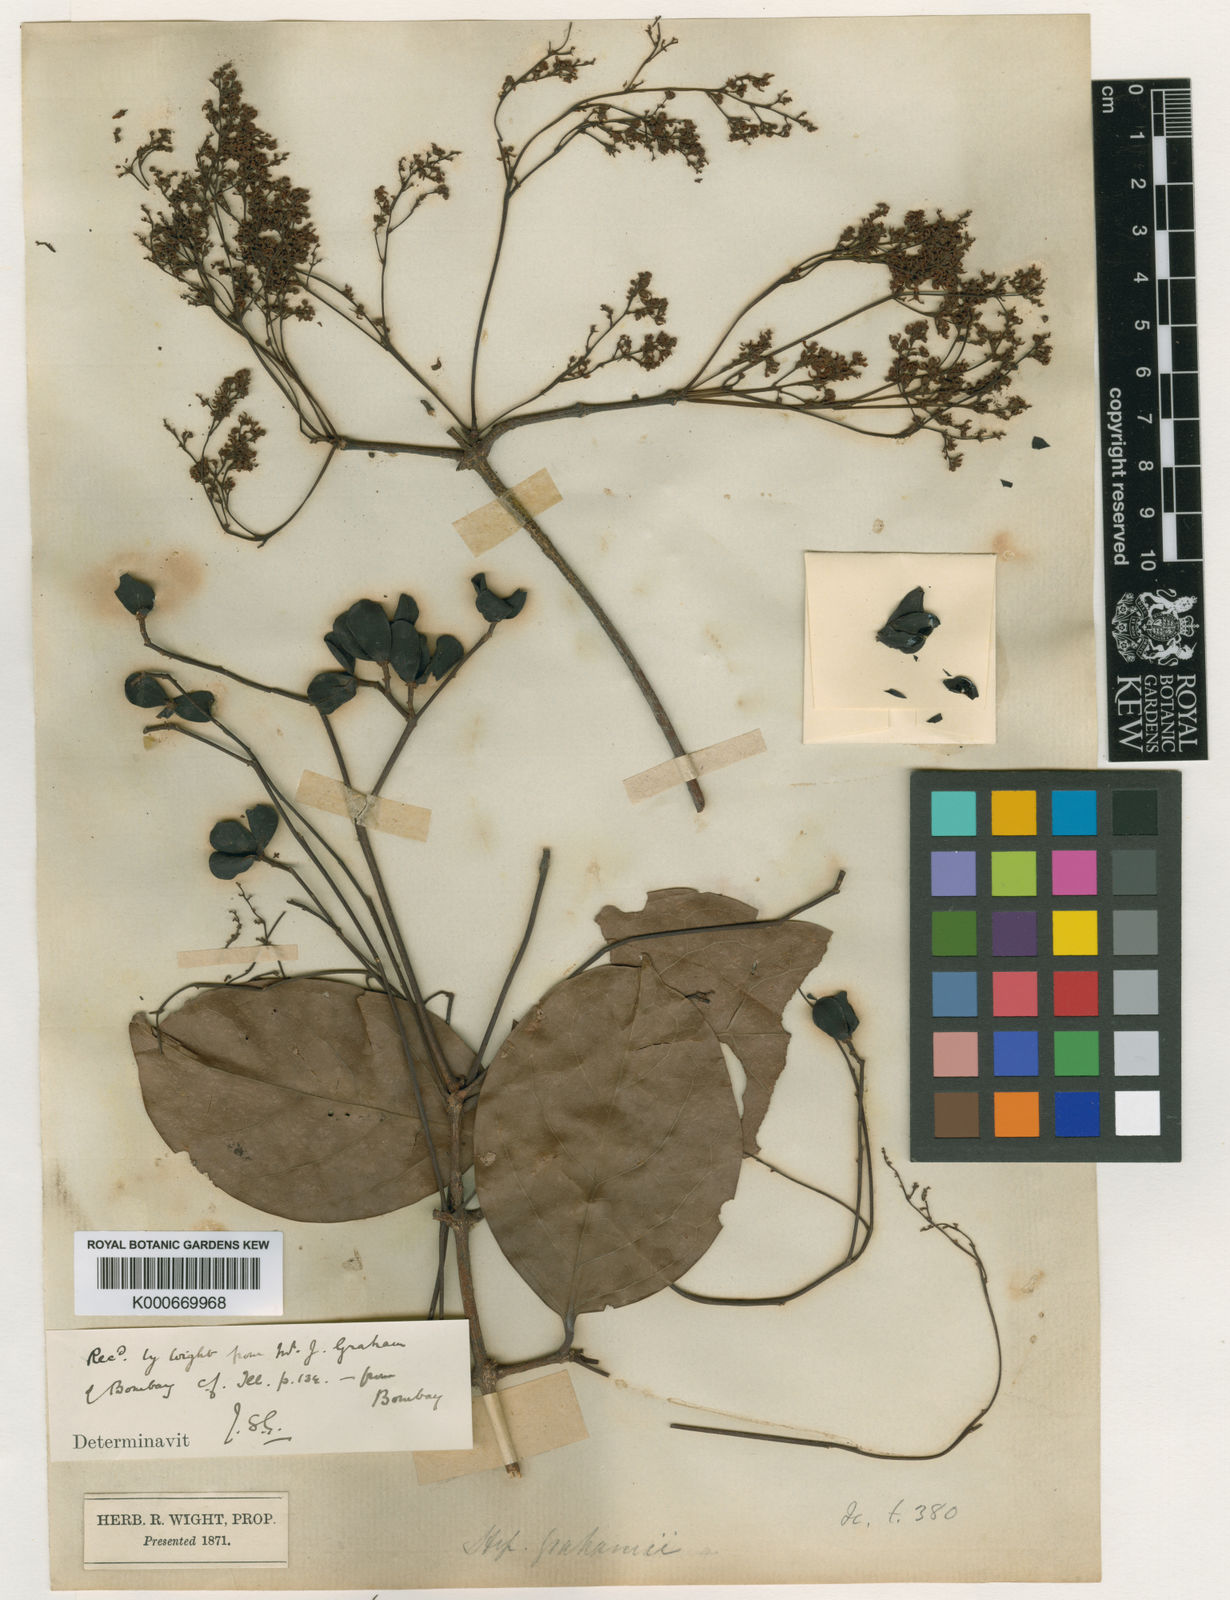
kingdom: Plantae
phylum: Tracheophyta
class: Magnoliopsida
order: Celastrales
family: Celastraceae
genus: Arnicratea
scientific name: Arnicratea grahamii
